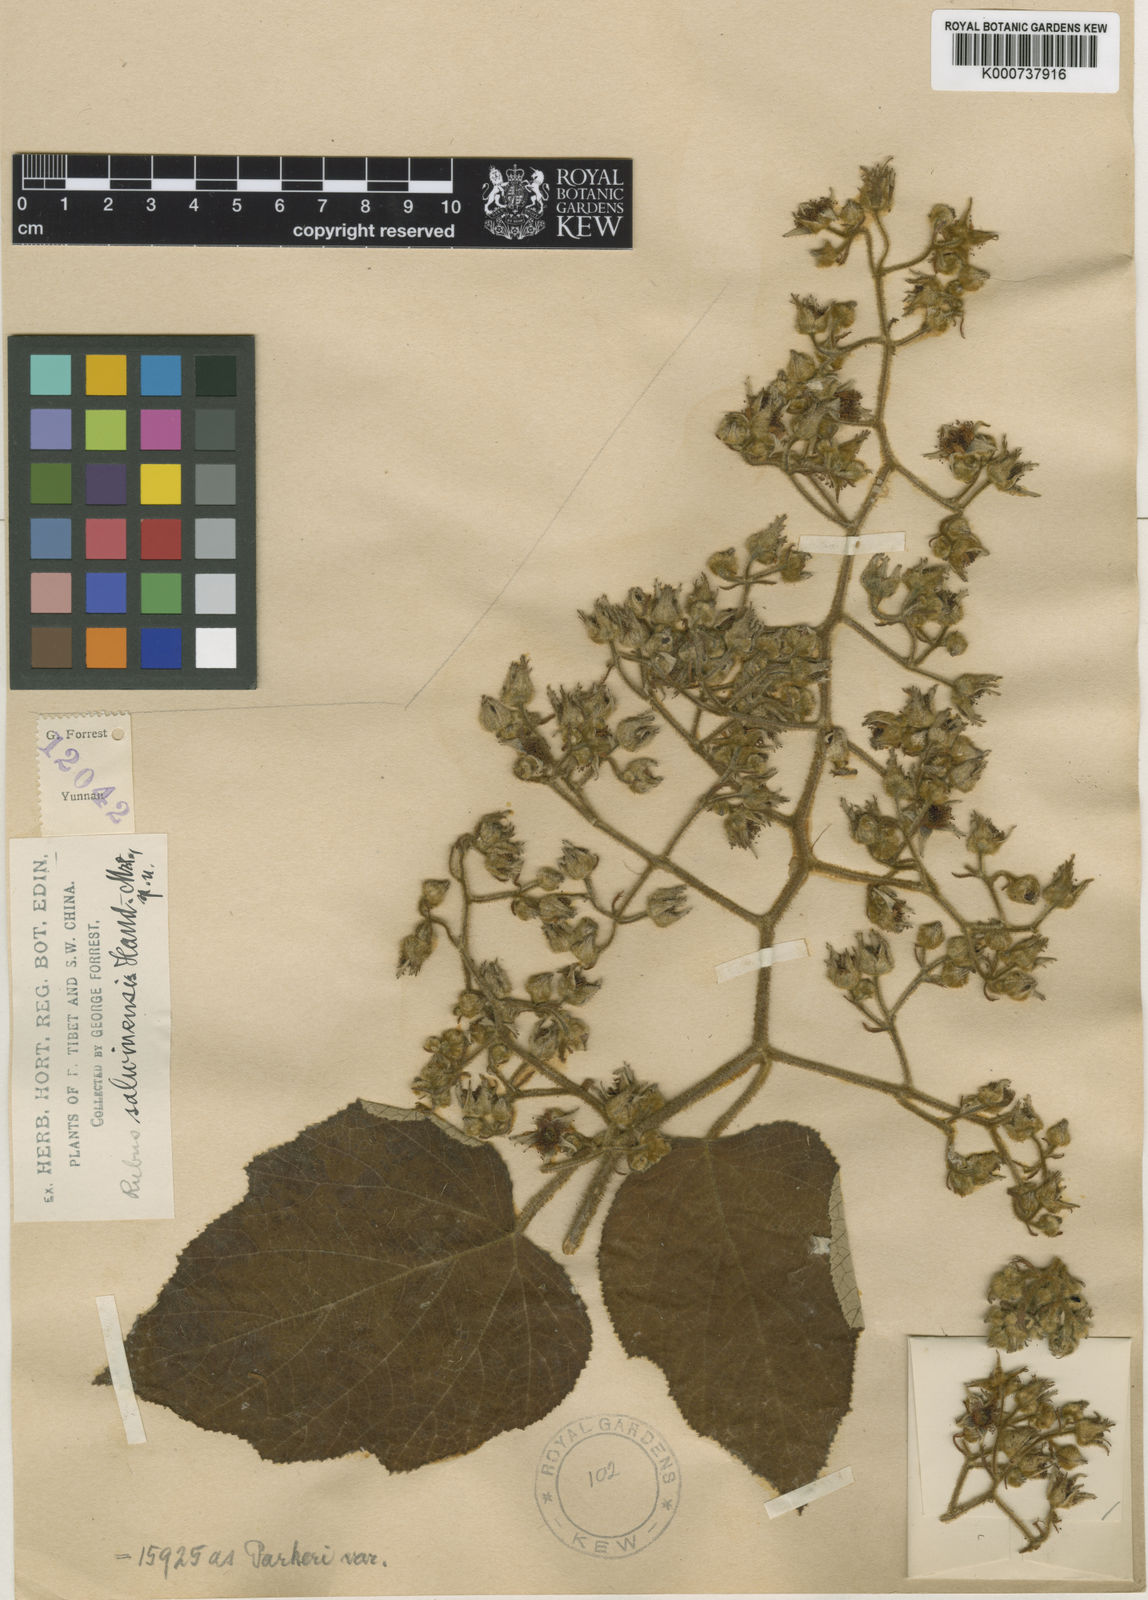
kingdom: Plantae
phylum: Tracheophyta
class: Magnoliopsida
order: Rosales
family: Rosaceae
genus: Rubus
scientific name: Rubus
